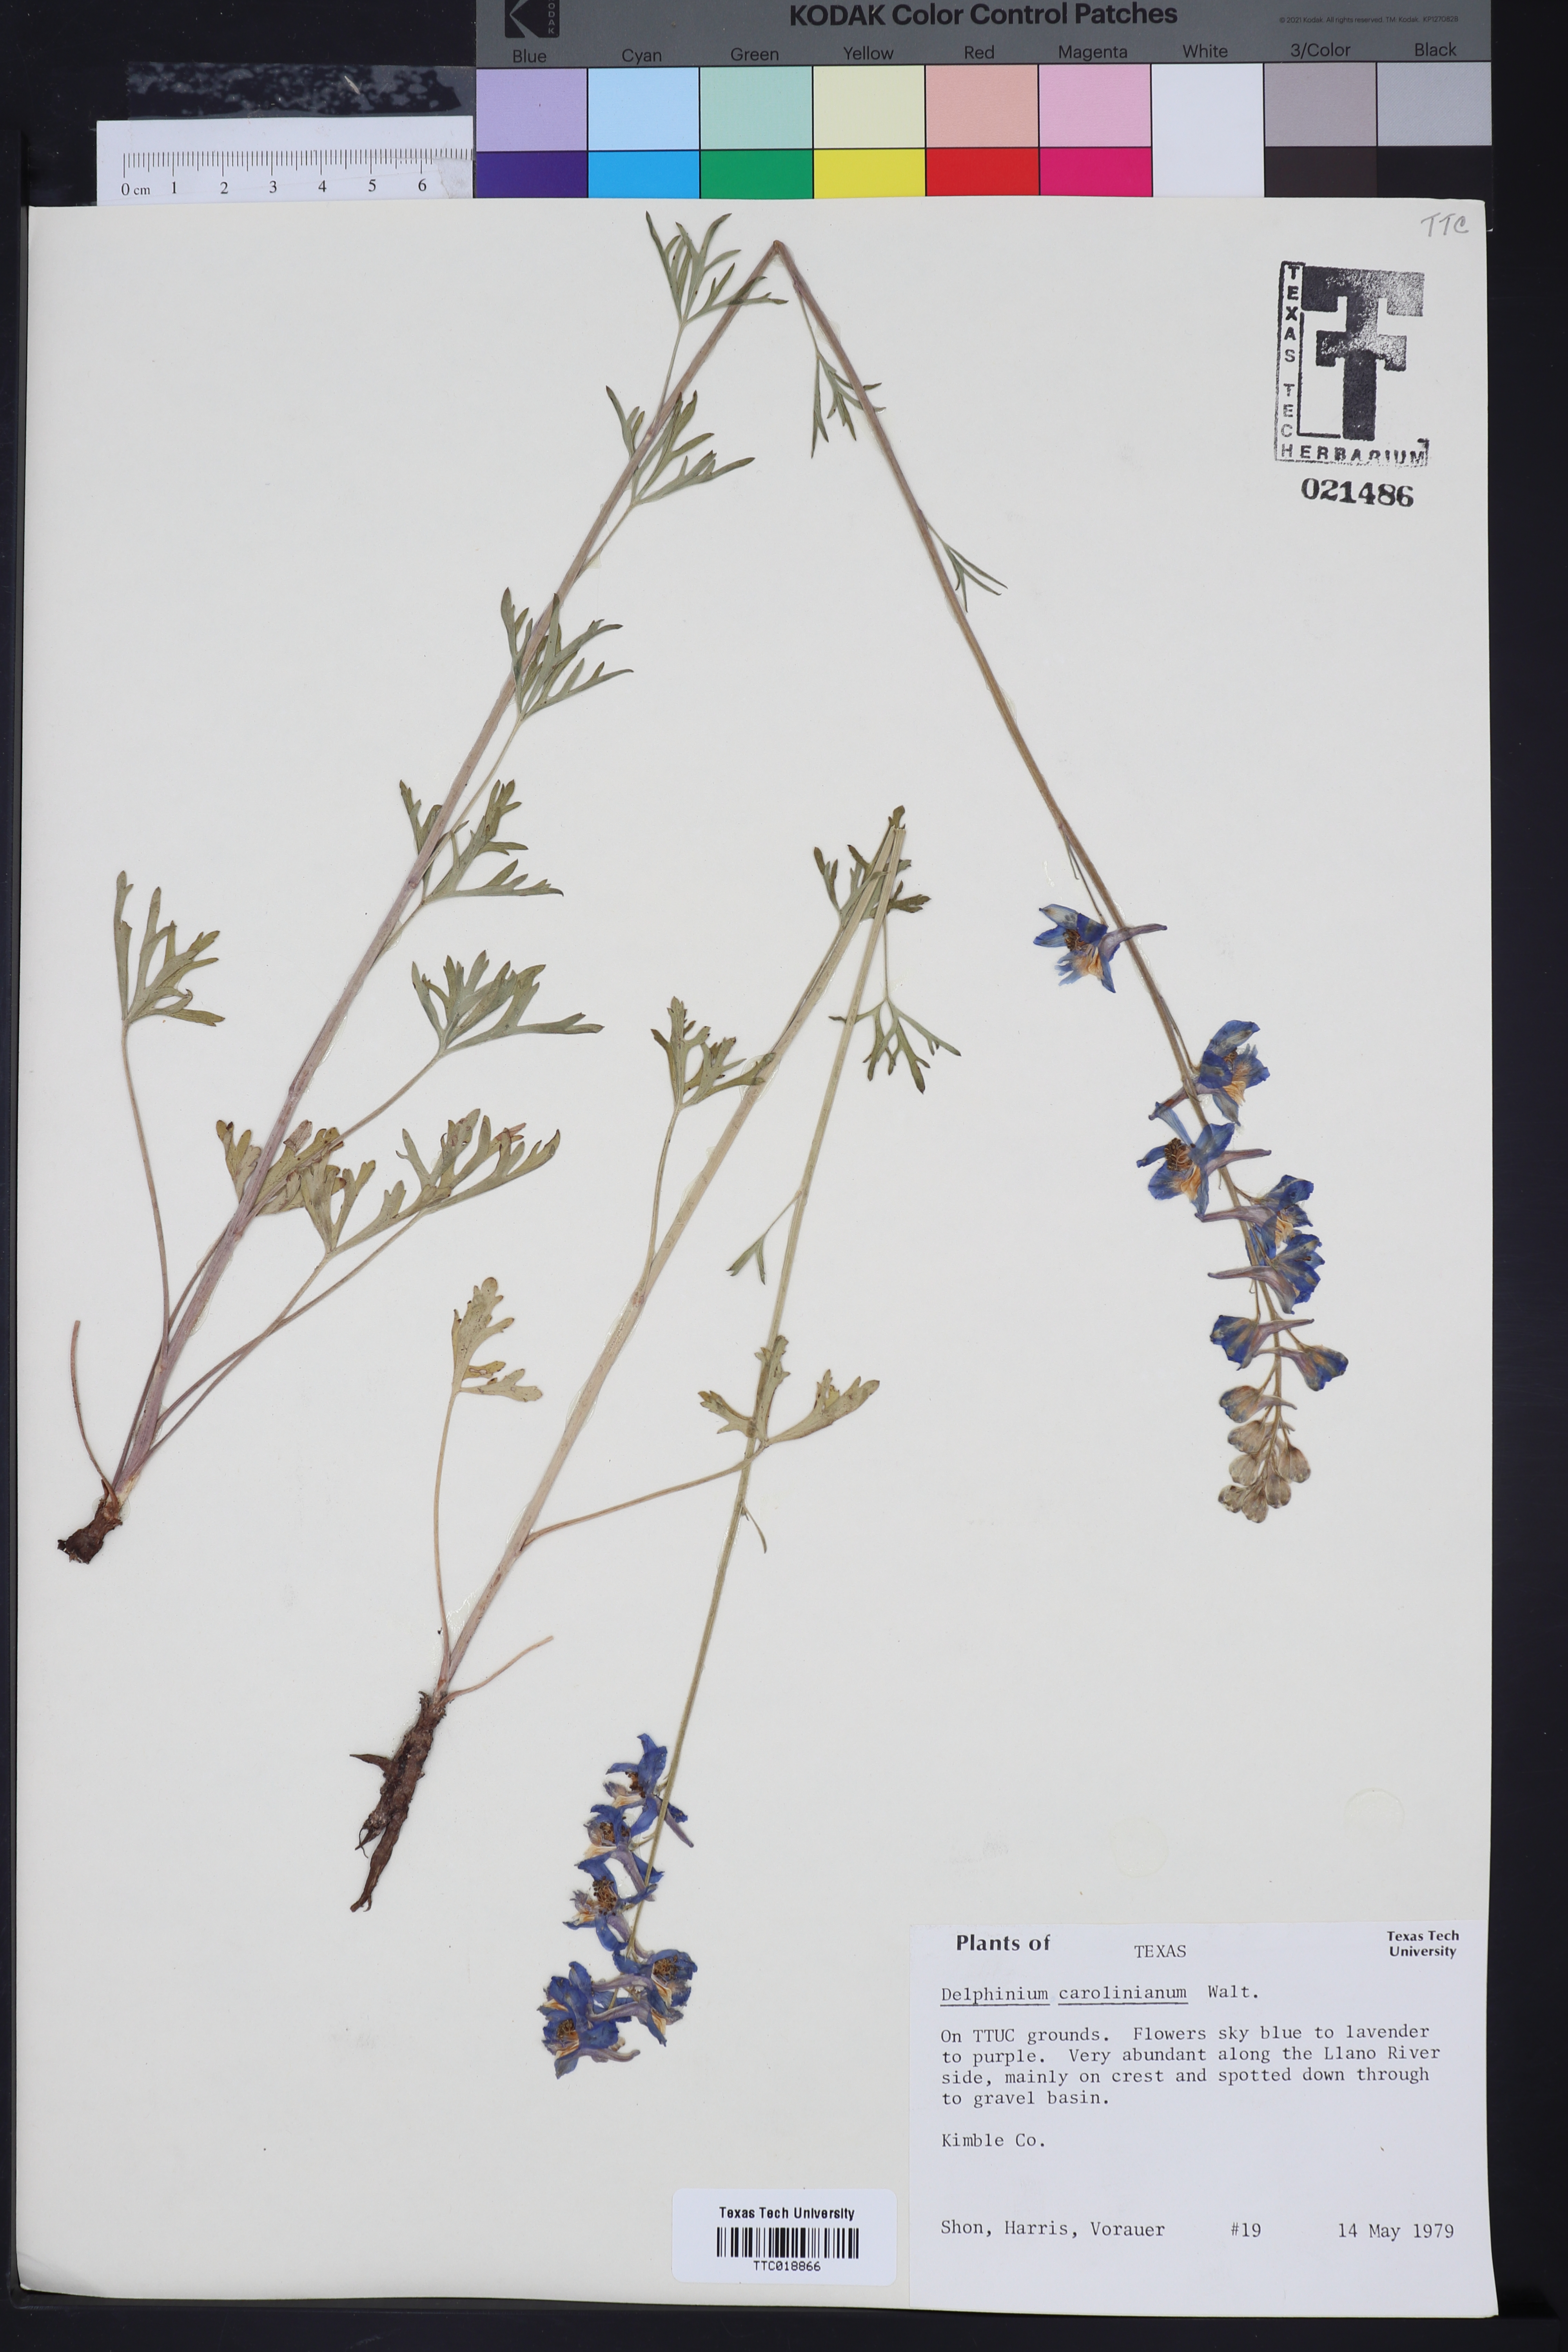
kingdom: Plantae
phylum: Tracheophyta
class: Magnoliopsida
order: Ranunculales
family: Ranunculaceae
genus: Delphinium
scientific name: Delphinium carolinianum
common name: Carolina larkspur
